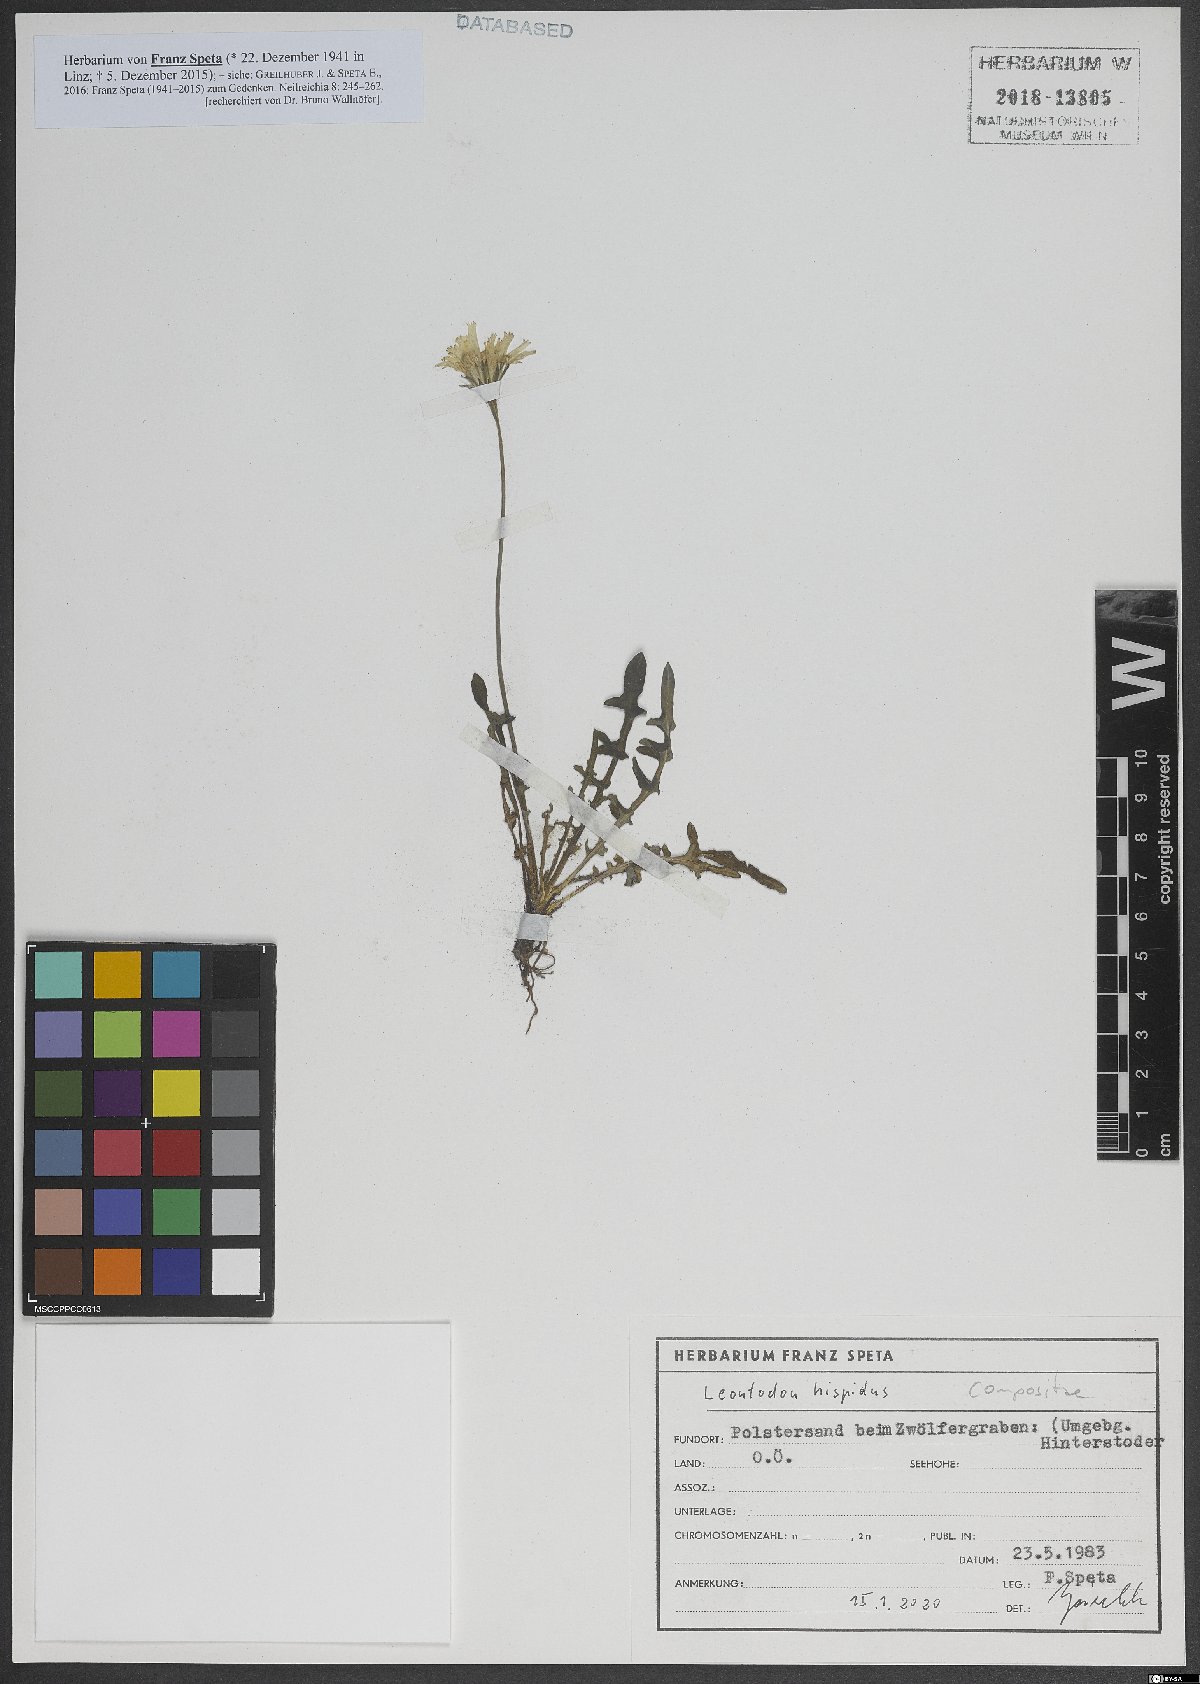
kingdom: Plantae
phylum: Tracheophyta
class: Magnoliopsida
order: Asterales
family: Asteraceae
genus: Leontodon
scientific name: Leontodon hispidus
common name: Rough hawkbit
